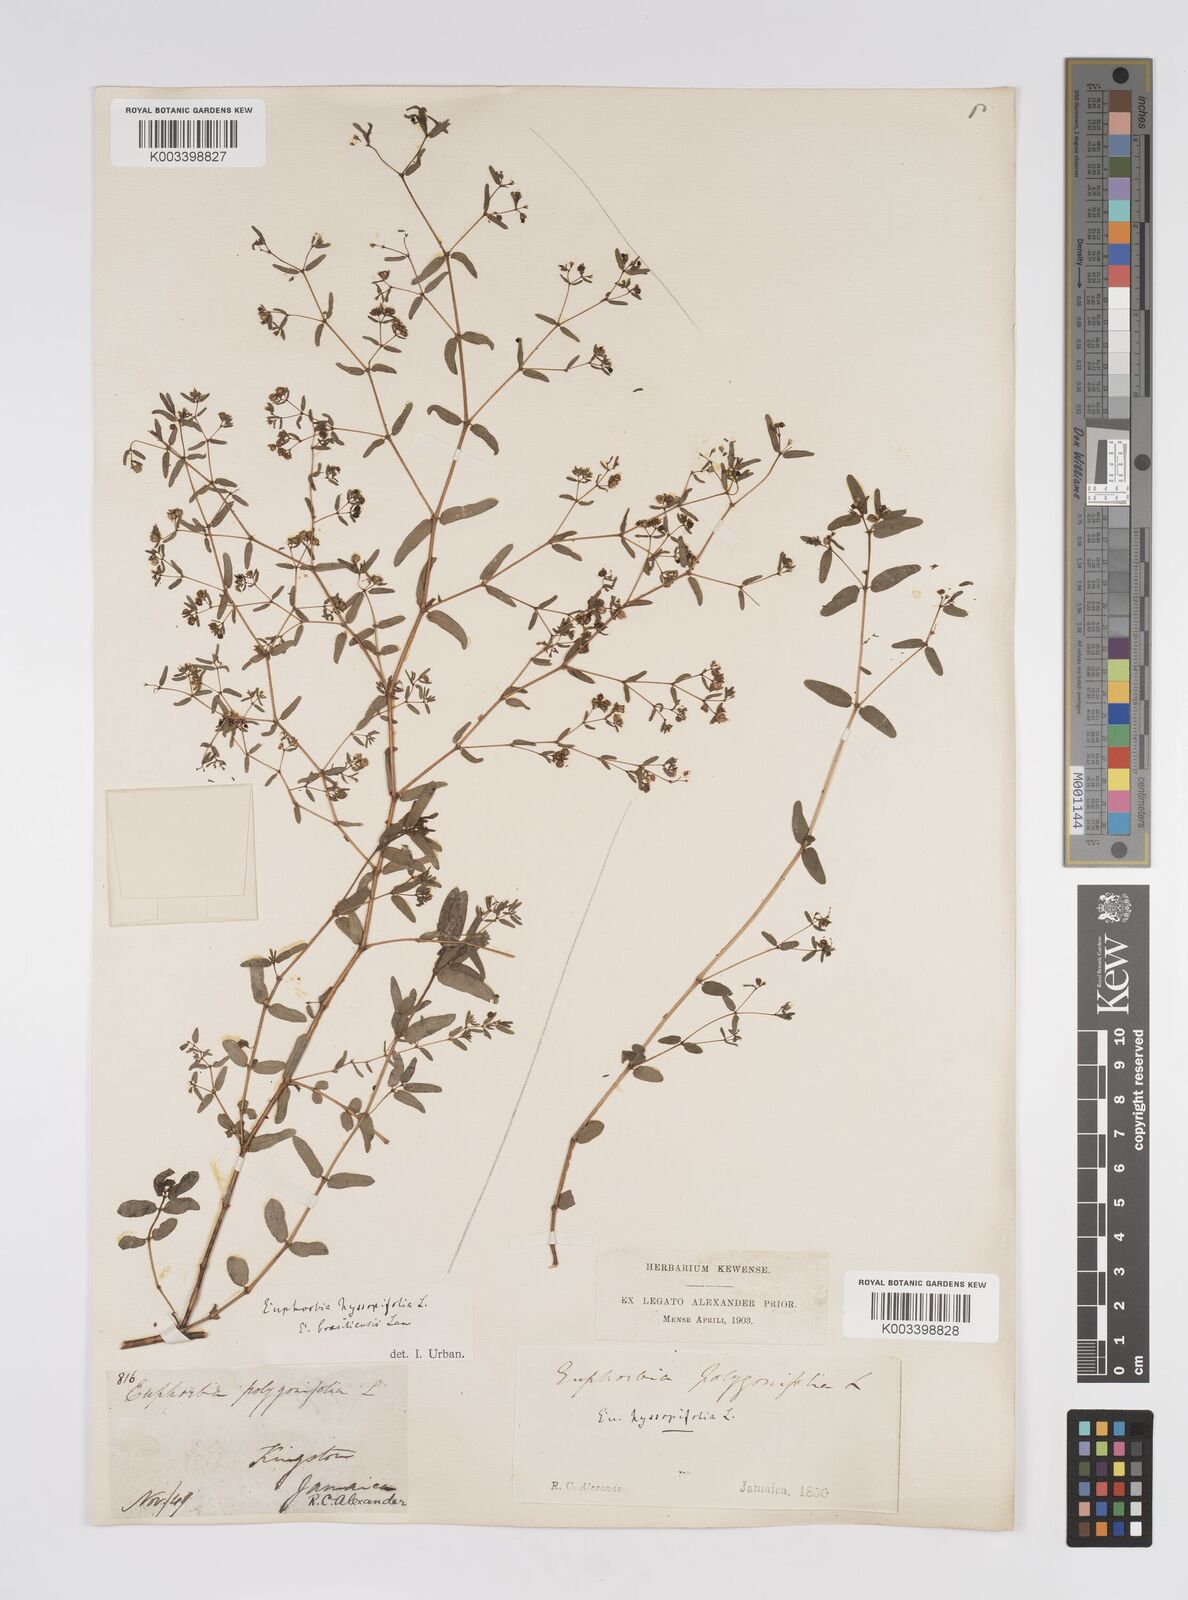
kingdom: Plantae
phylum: Tracheophyta
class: Magnoliopsida
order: Malpighiales
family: Euphorbiaceae
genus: Euphorbia
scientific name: Euphorbia hyssopifolia
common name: Hyssopleaf sandmat
